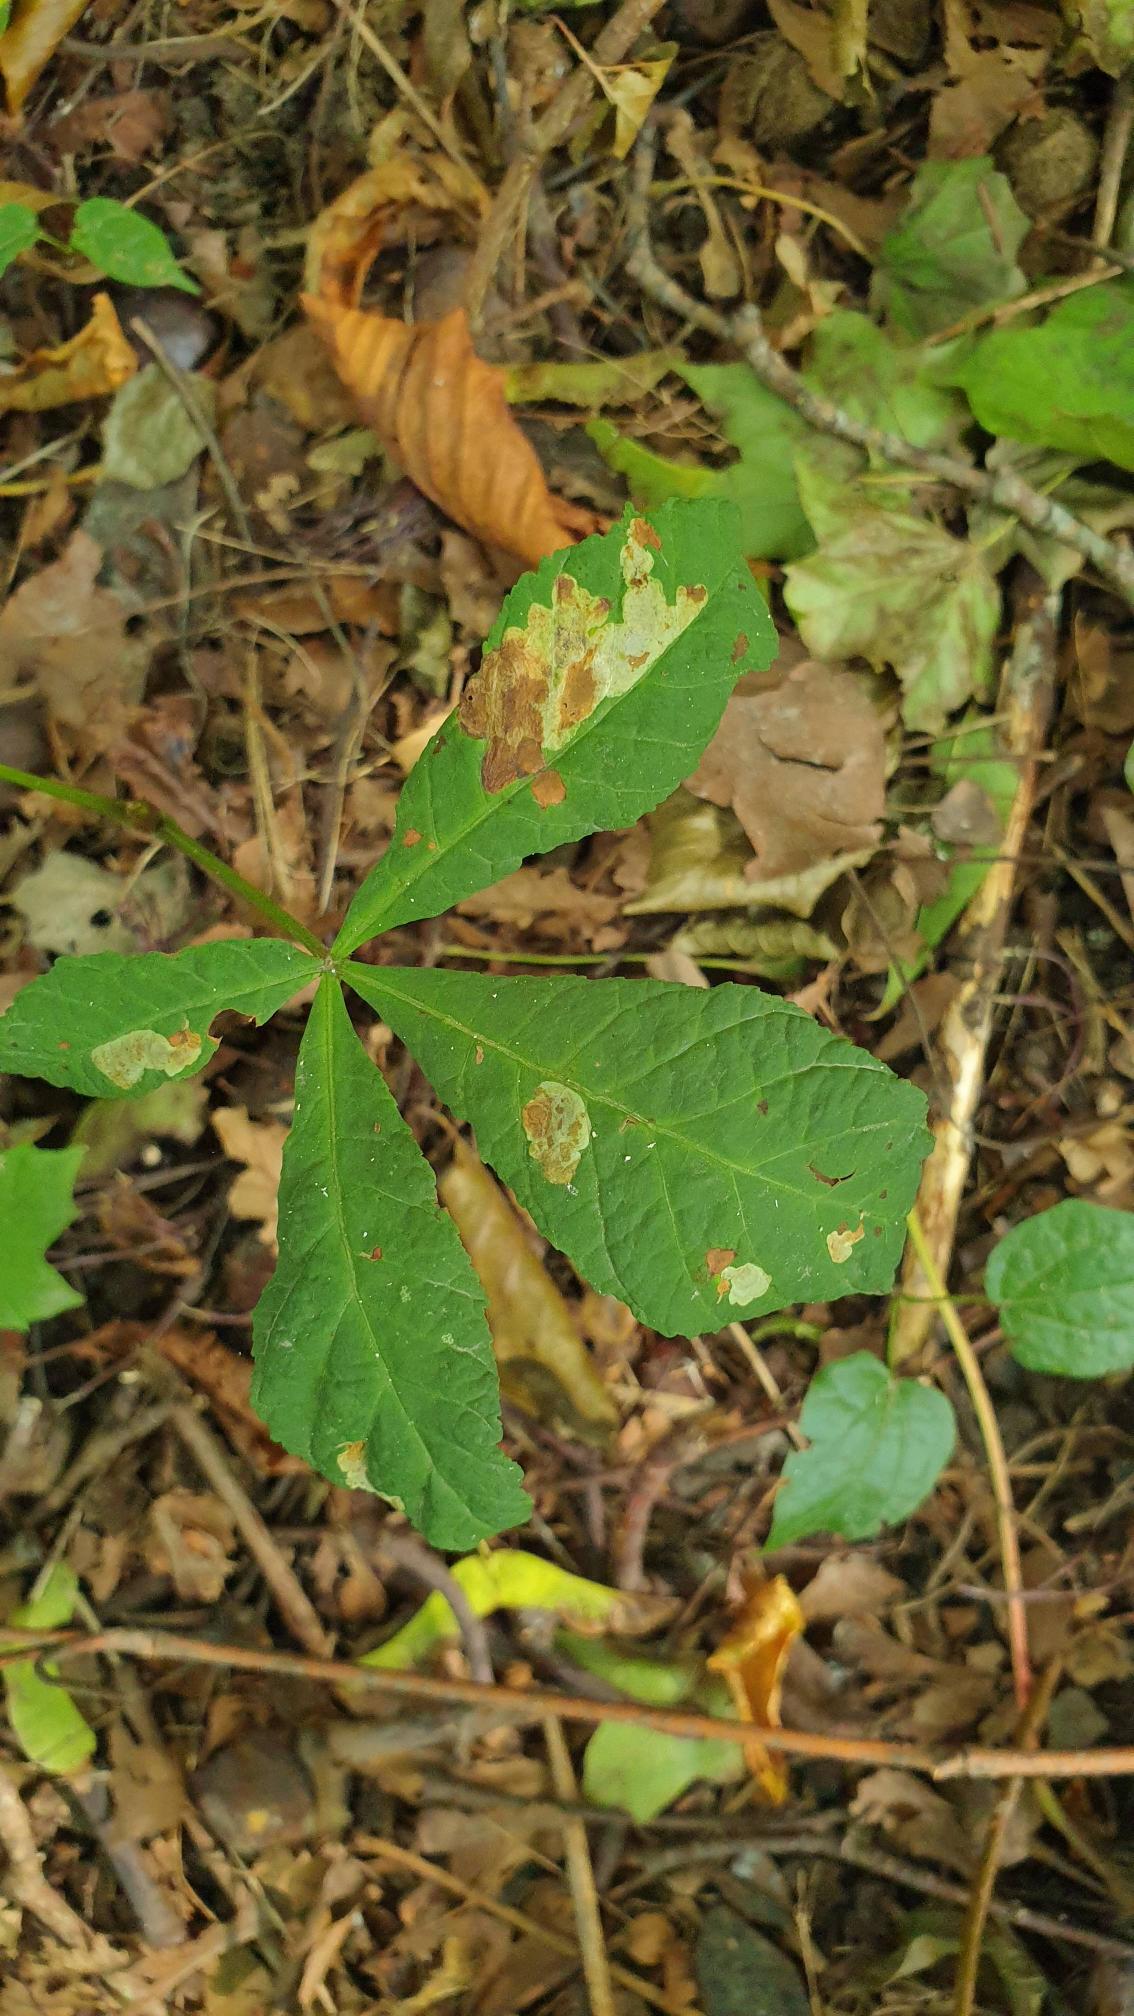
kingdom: Animalia
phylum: Arthropoda
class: Insecta
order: Lepidoptera
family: Gracillariidae
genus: Cameraria
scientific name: Cameraria ohridella
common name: Kastanieminérmøl
